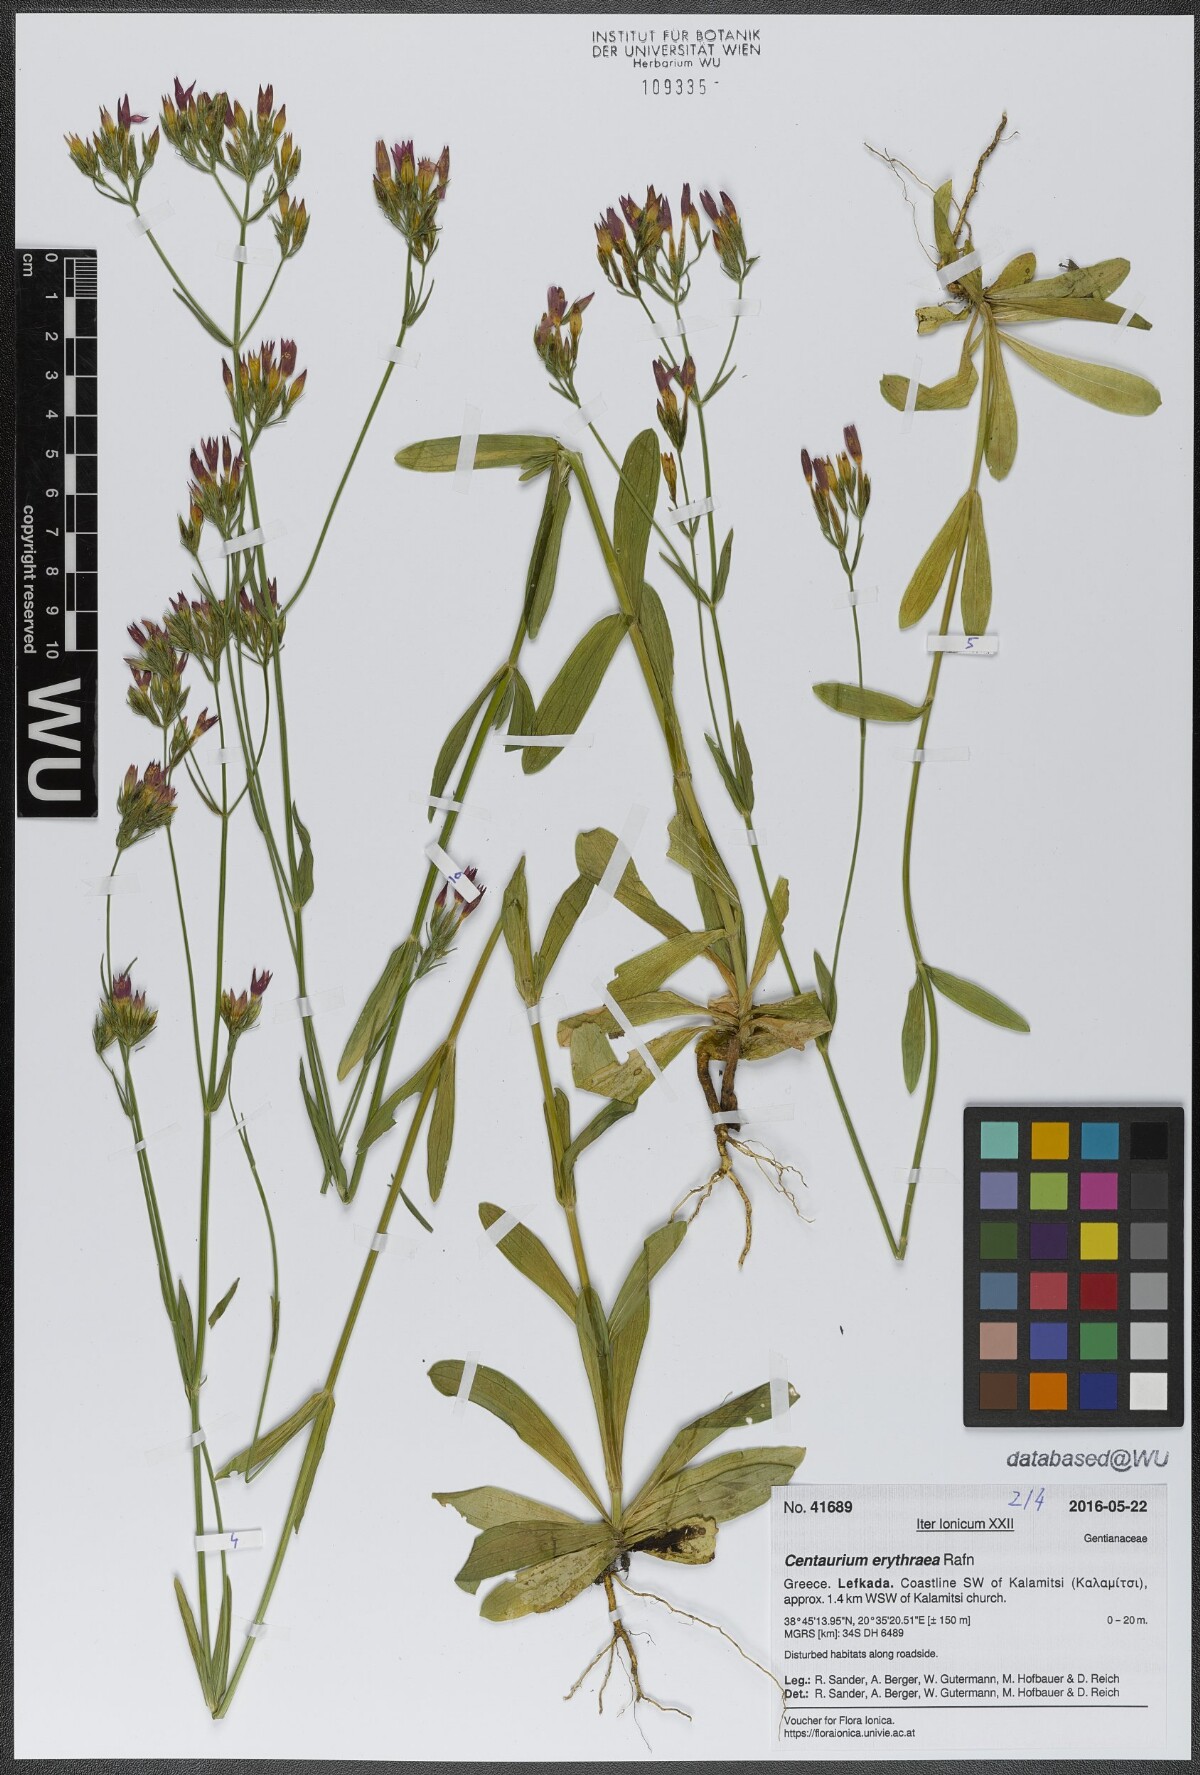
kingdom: Plantae
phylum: Tracheophyta
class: Magnoliopsida
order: Gentianales
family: Gentianaceae
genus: Centaurium
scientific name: Centaurium erythraea
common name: Common centaury
